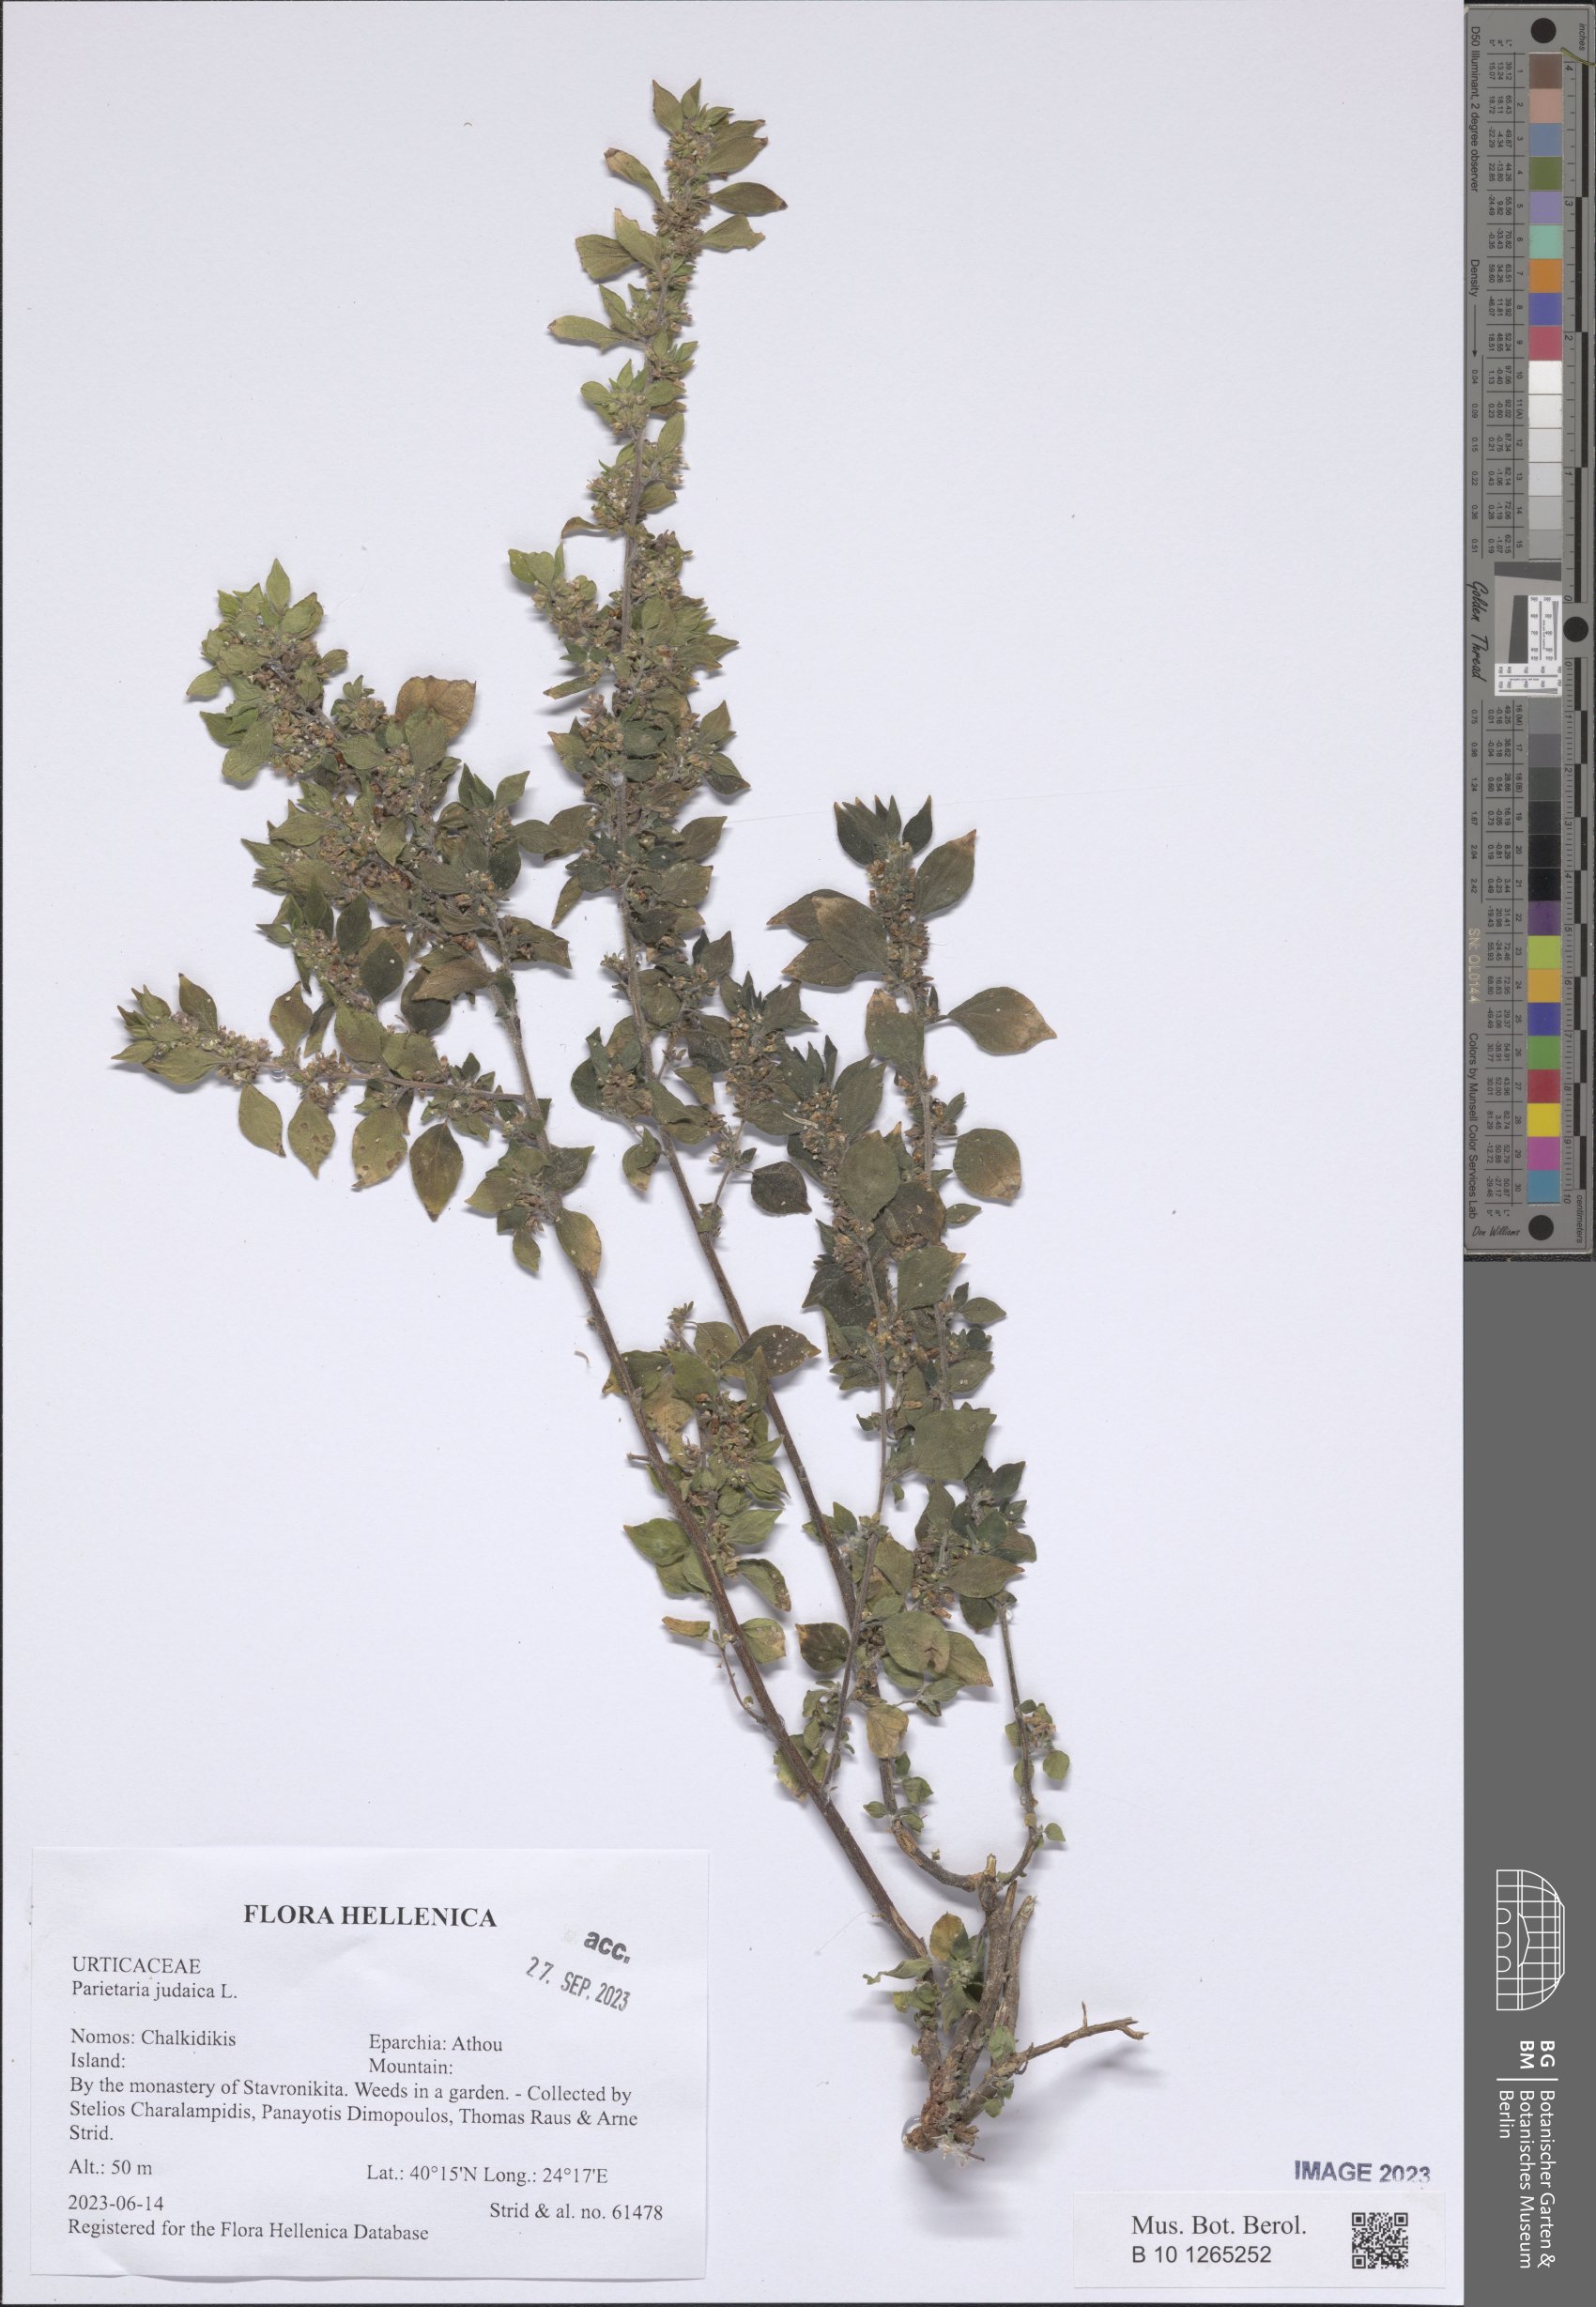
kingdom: Plantae
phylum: Tracheophyta
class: Magnoliopsida
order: Rosales
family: Urticaceae
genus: Parietaria
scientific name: Parietaria judaica
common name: Pellitory-of-the-wall
